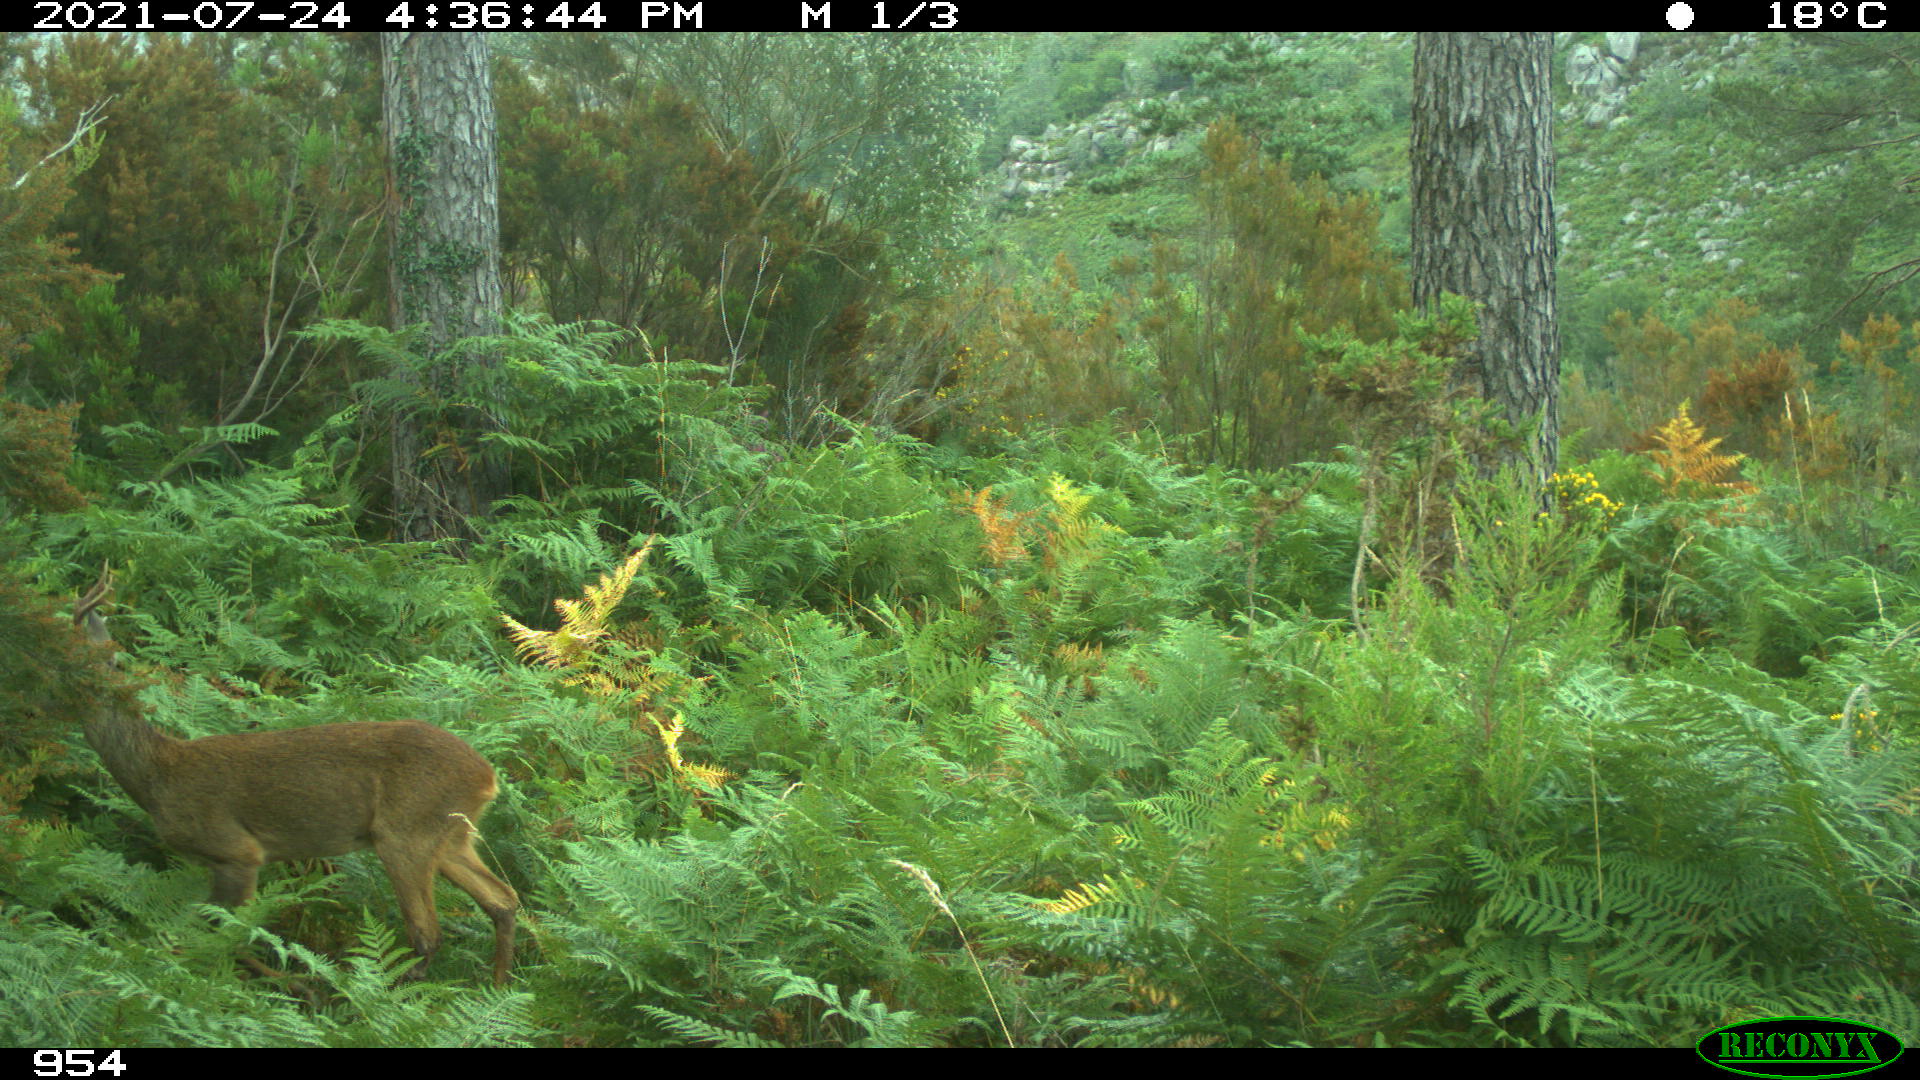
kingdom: Animalia
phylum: Chordata
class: Mammalia
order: Artiodactyla
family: Cervidae
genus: Capreolus
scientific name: Capreolus capreolus
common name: Western roe deer
